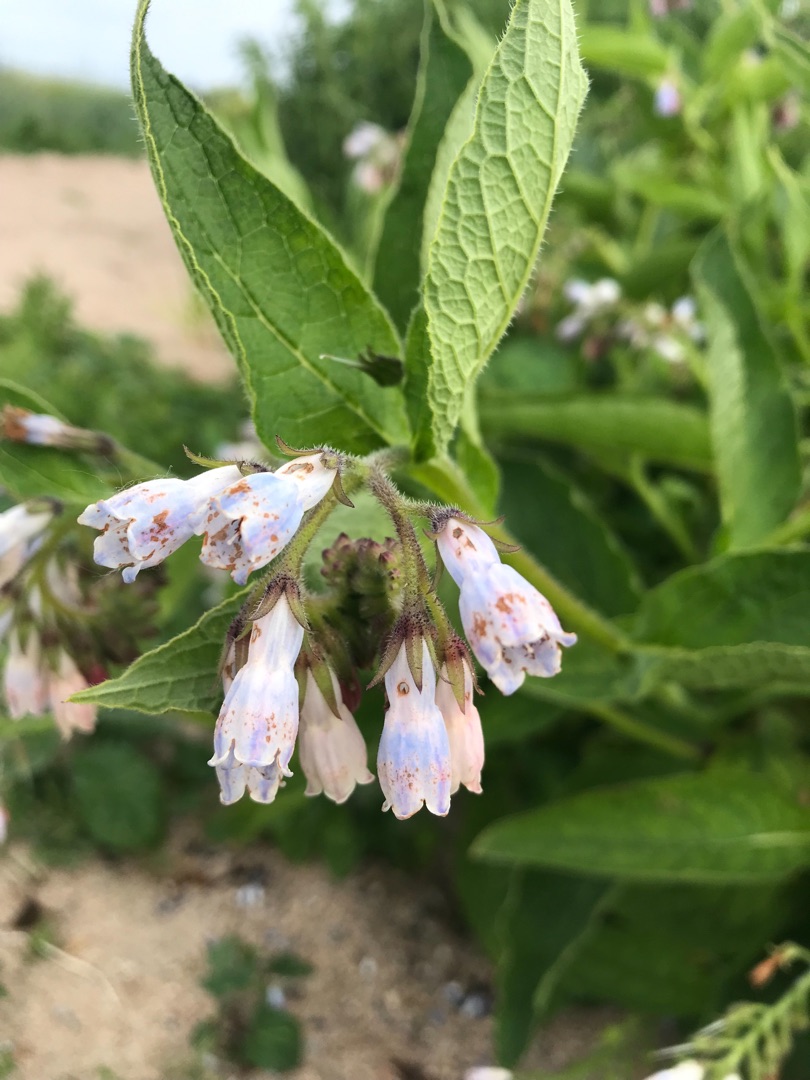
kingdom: Plantae
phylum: Tracheophyta
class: Magnoliopsida
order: Boraginales
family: Boraginaceae
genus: Symphytum
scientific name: Symphytum uplandicum
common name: Foder-kulsukker
